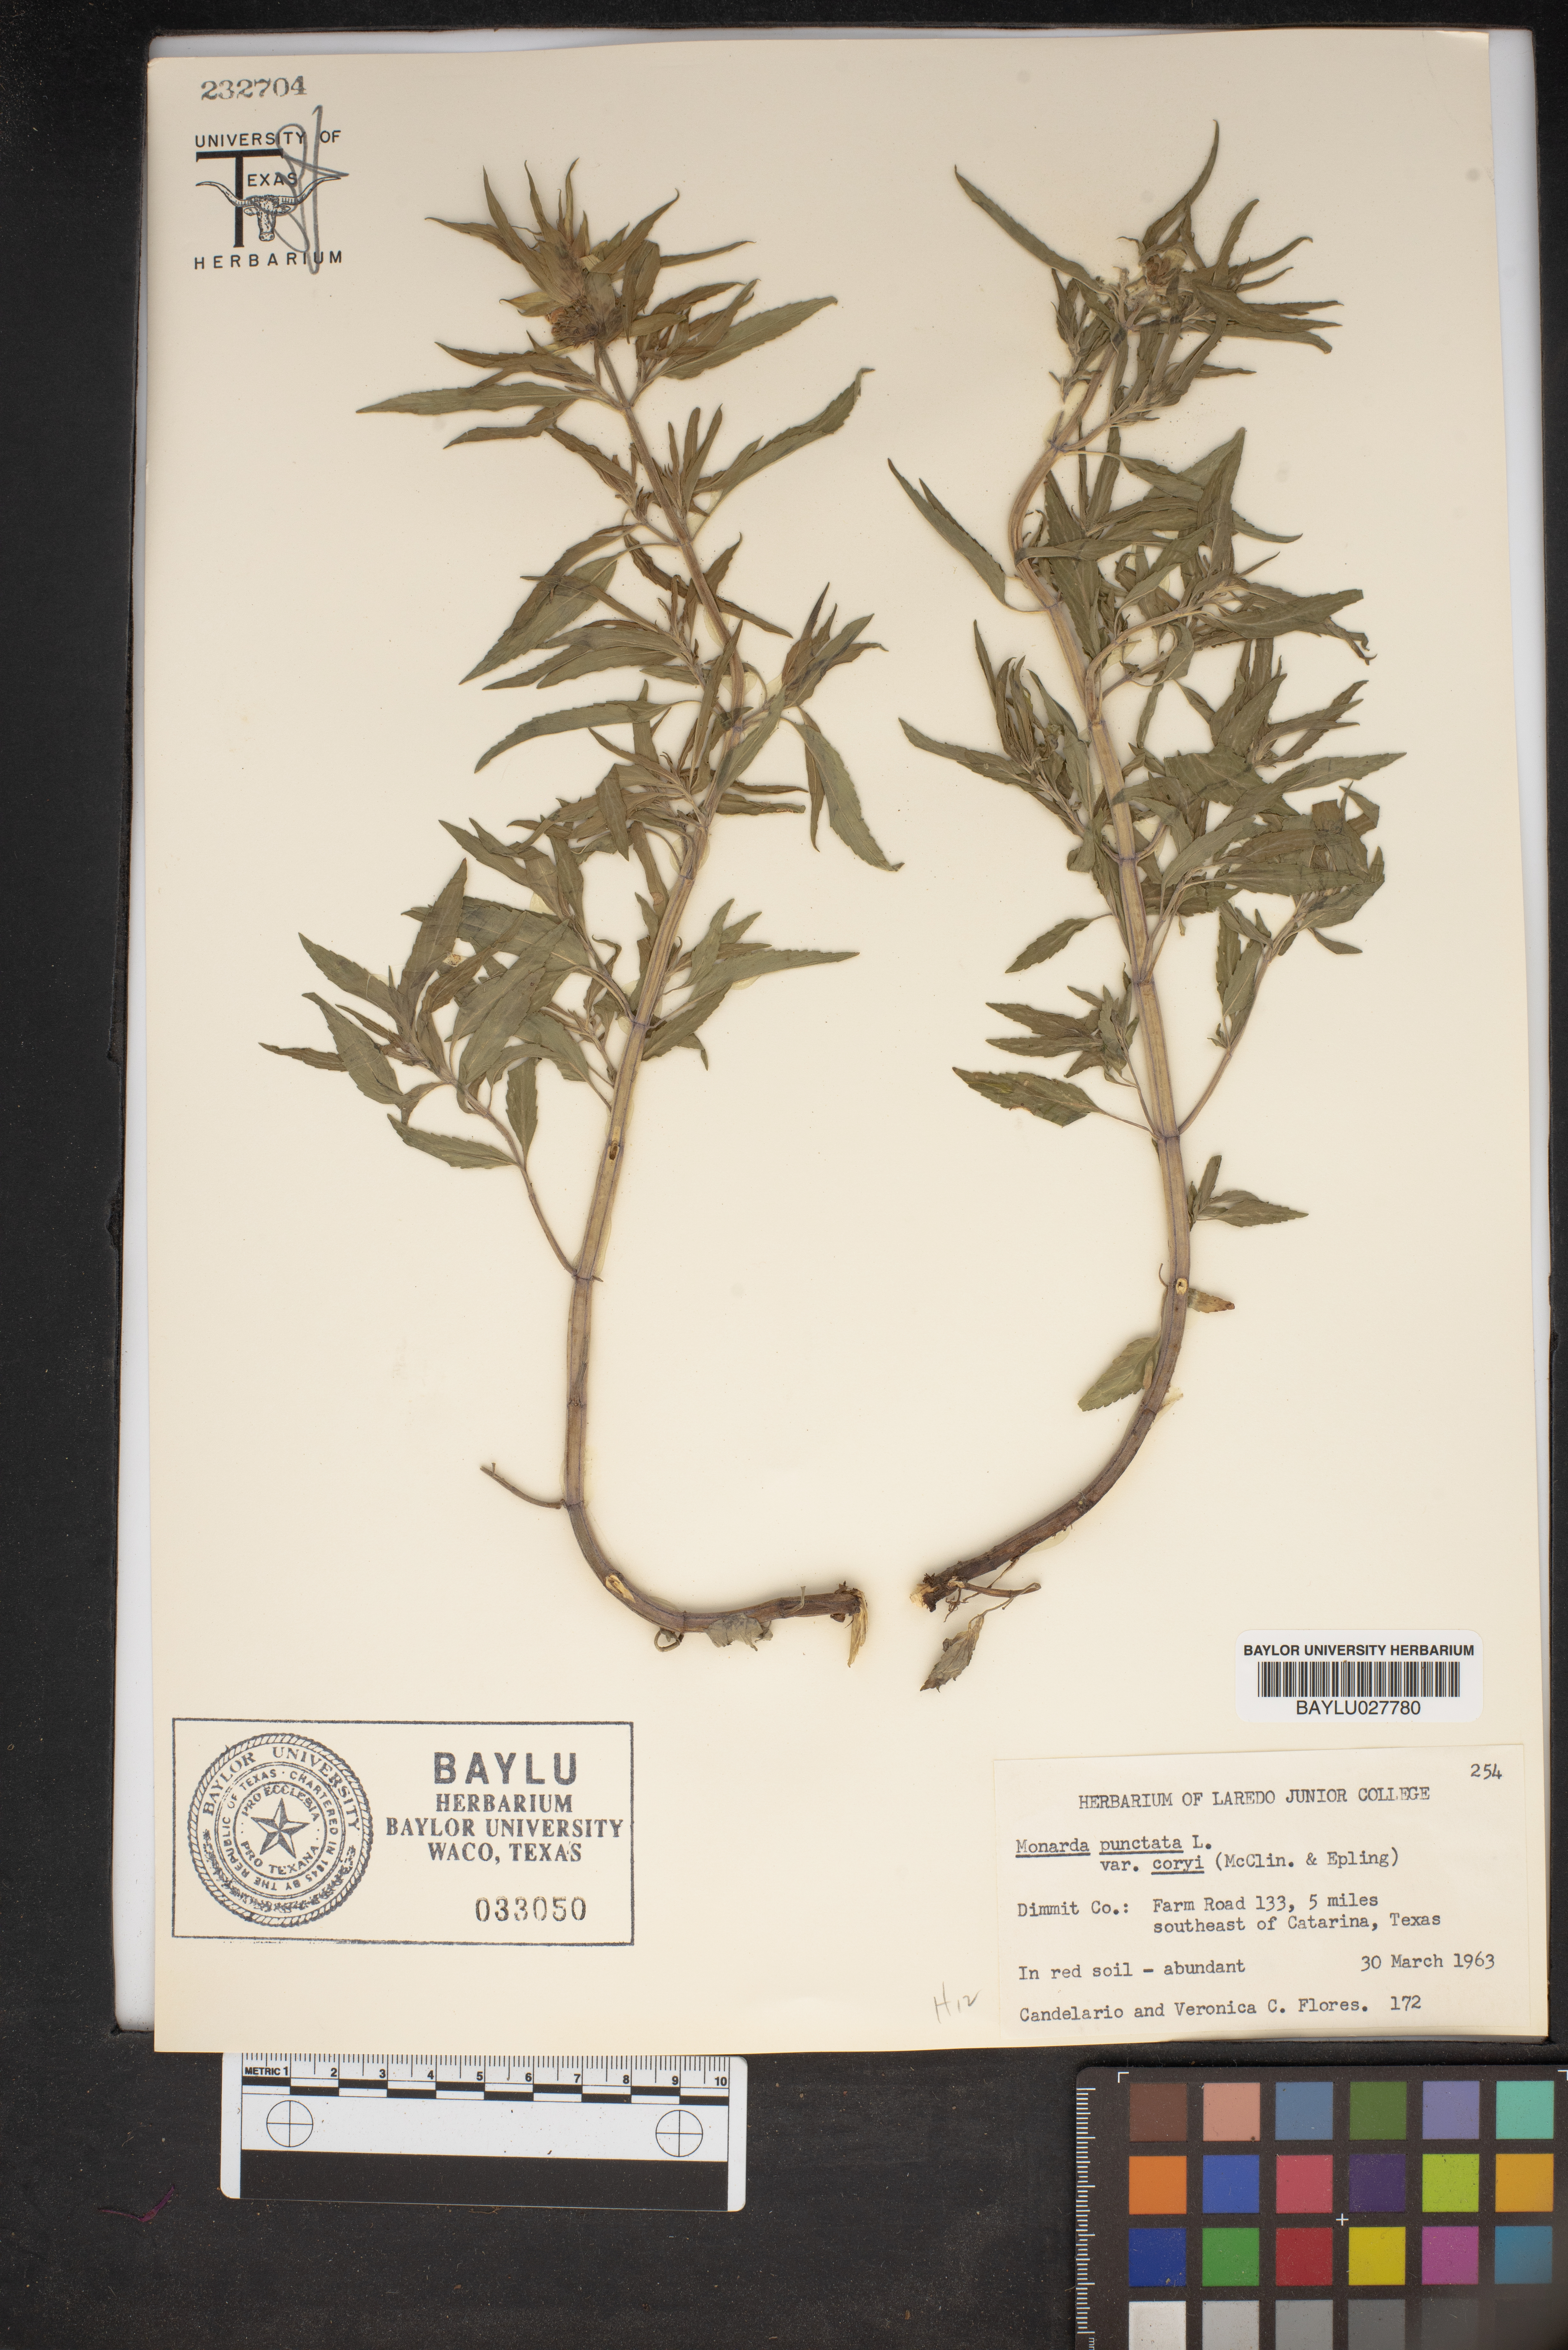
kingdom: Plantae
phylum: Tracheophyta
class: Magnoliopsida
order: Lamiales
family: Lamiaceae
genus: Monarda
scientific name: Monarda punctata
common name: Dotted monarda
